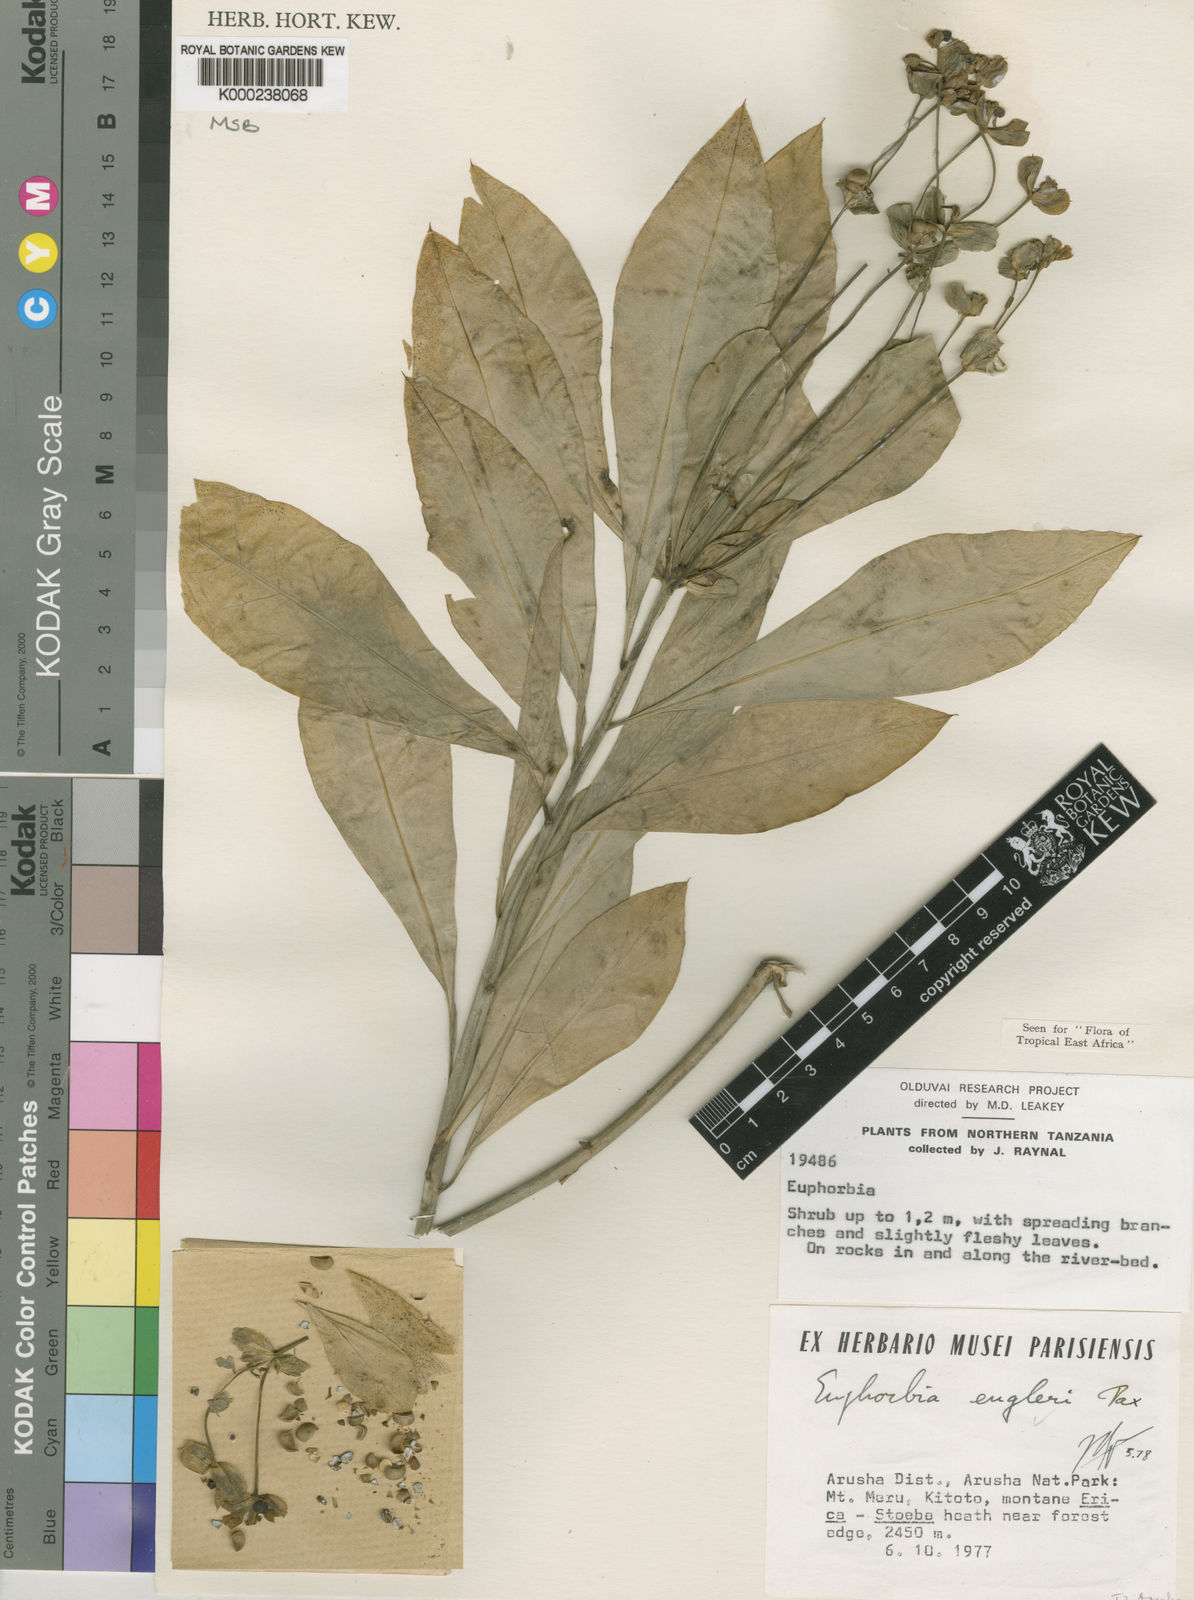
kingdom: Plantae
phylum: Tracheophyta
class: Magnoliopsida
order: Malpighiales
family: Euphorbiaceae
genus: Euphorbia
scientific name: Euphorbia engleri
